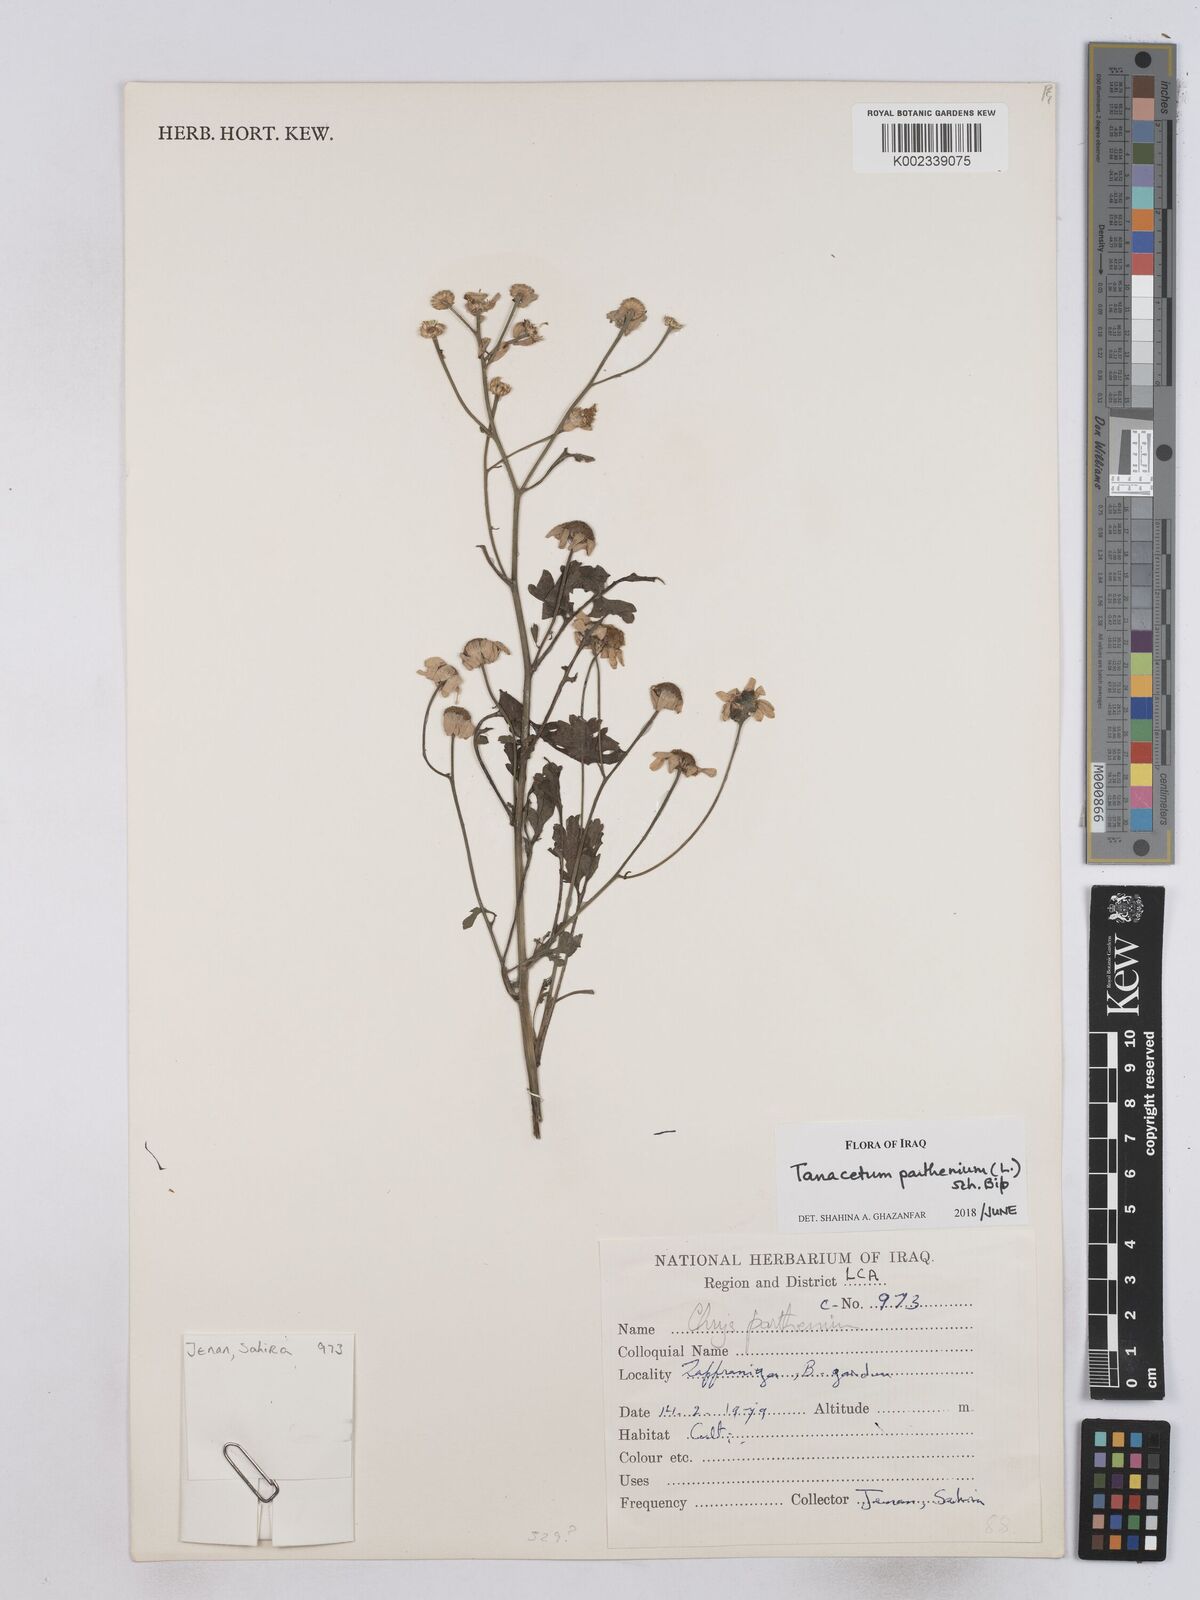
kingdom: Plantae
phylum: Tracheophyta
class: Magnoliopsida
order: Asterales
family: Asteraceae
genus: Tanacetum
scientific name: Tanacetum parthenium
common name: Feverfew
